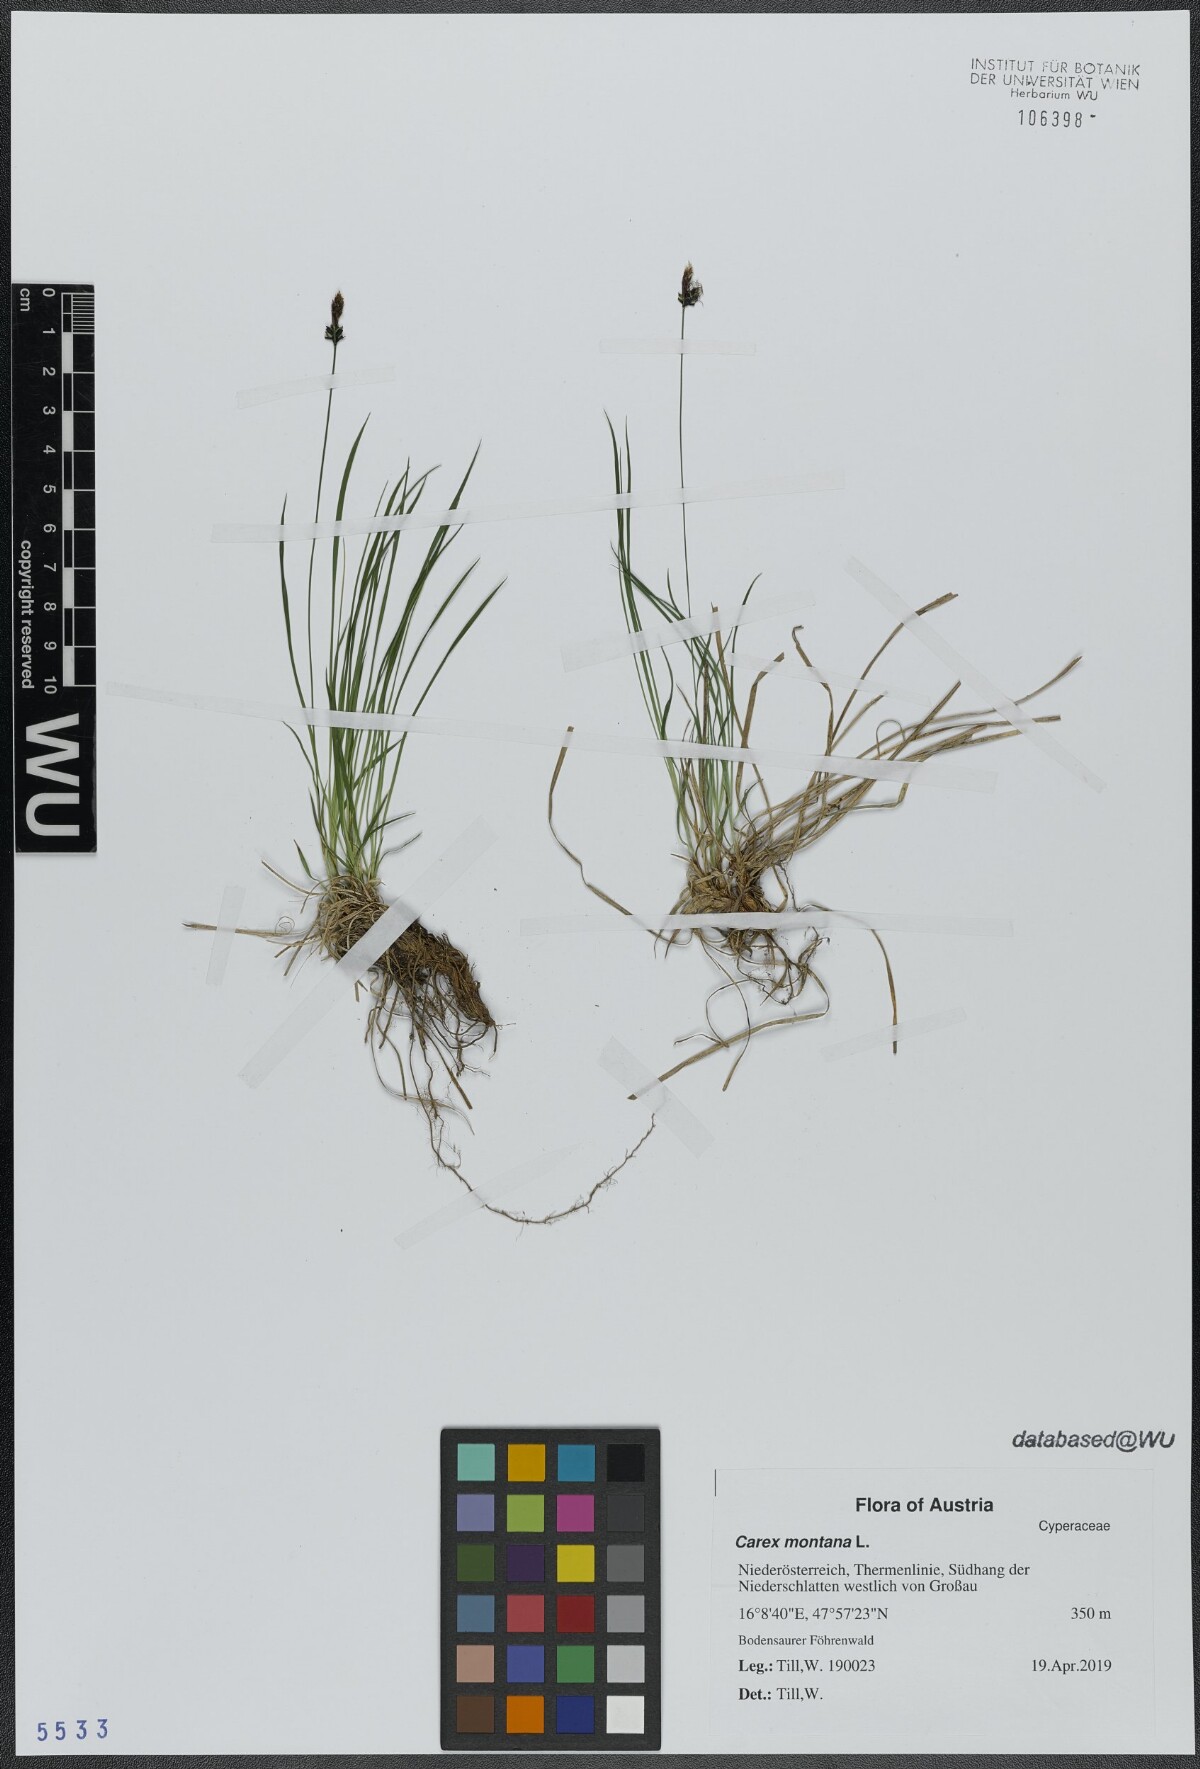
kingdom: Plantae
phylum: Tracheophyta
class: Liliopsida
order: Poales
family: Cyperaceae
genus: Carex
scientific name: Carex montana
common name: Soft-leaved sedge
